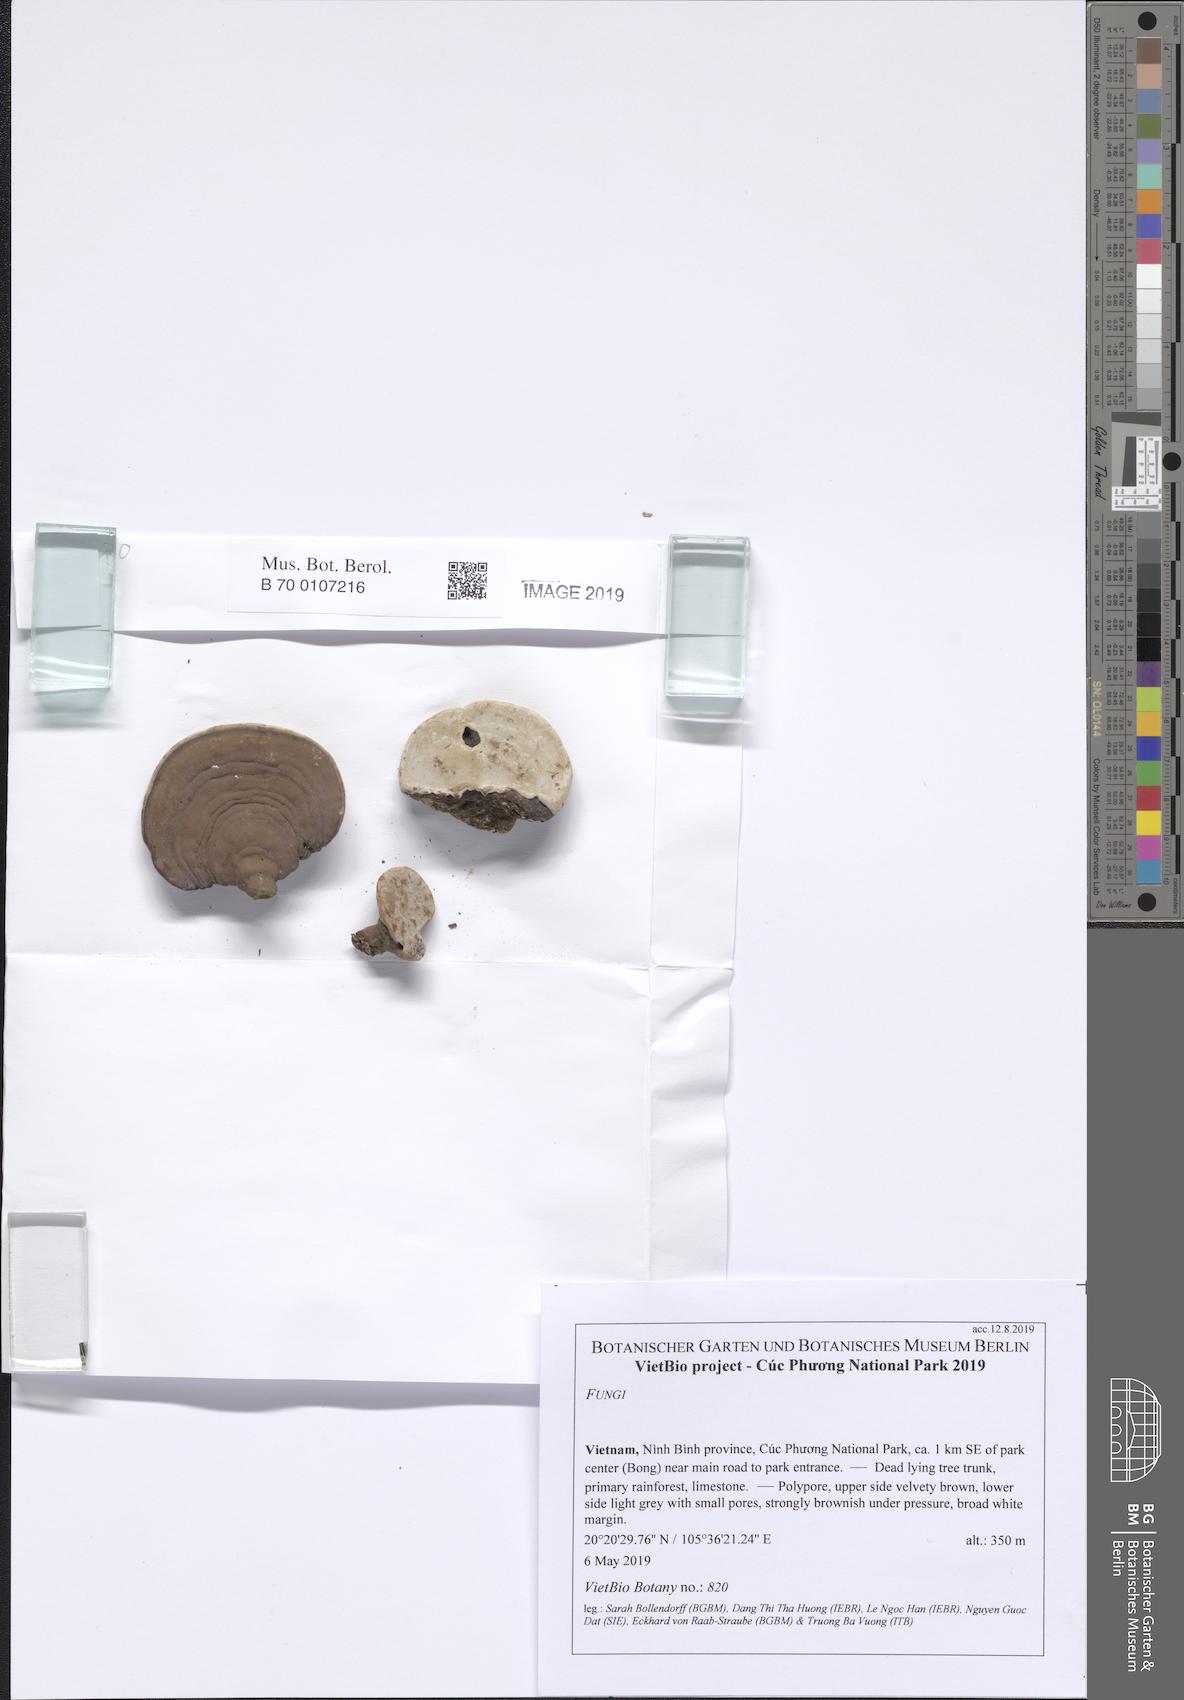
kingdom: Fungi
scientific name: Fungi
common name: Fungi
